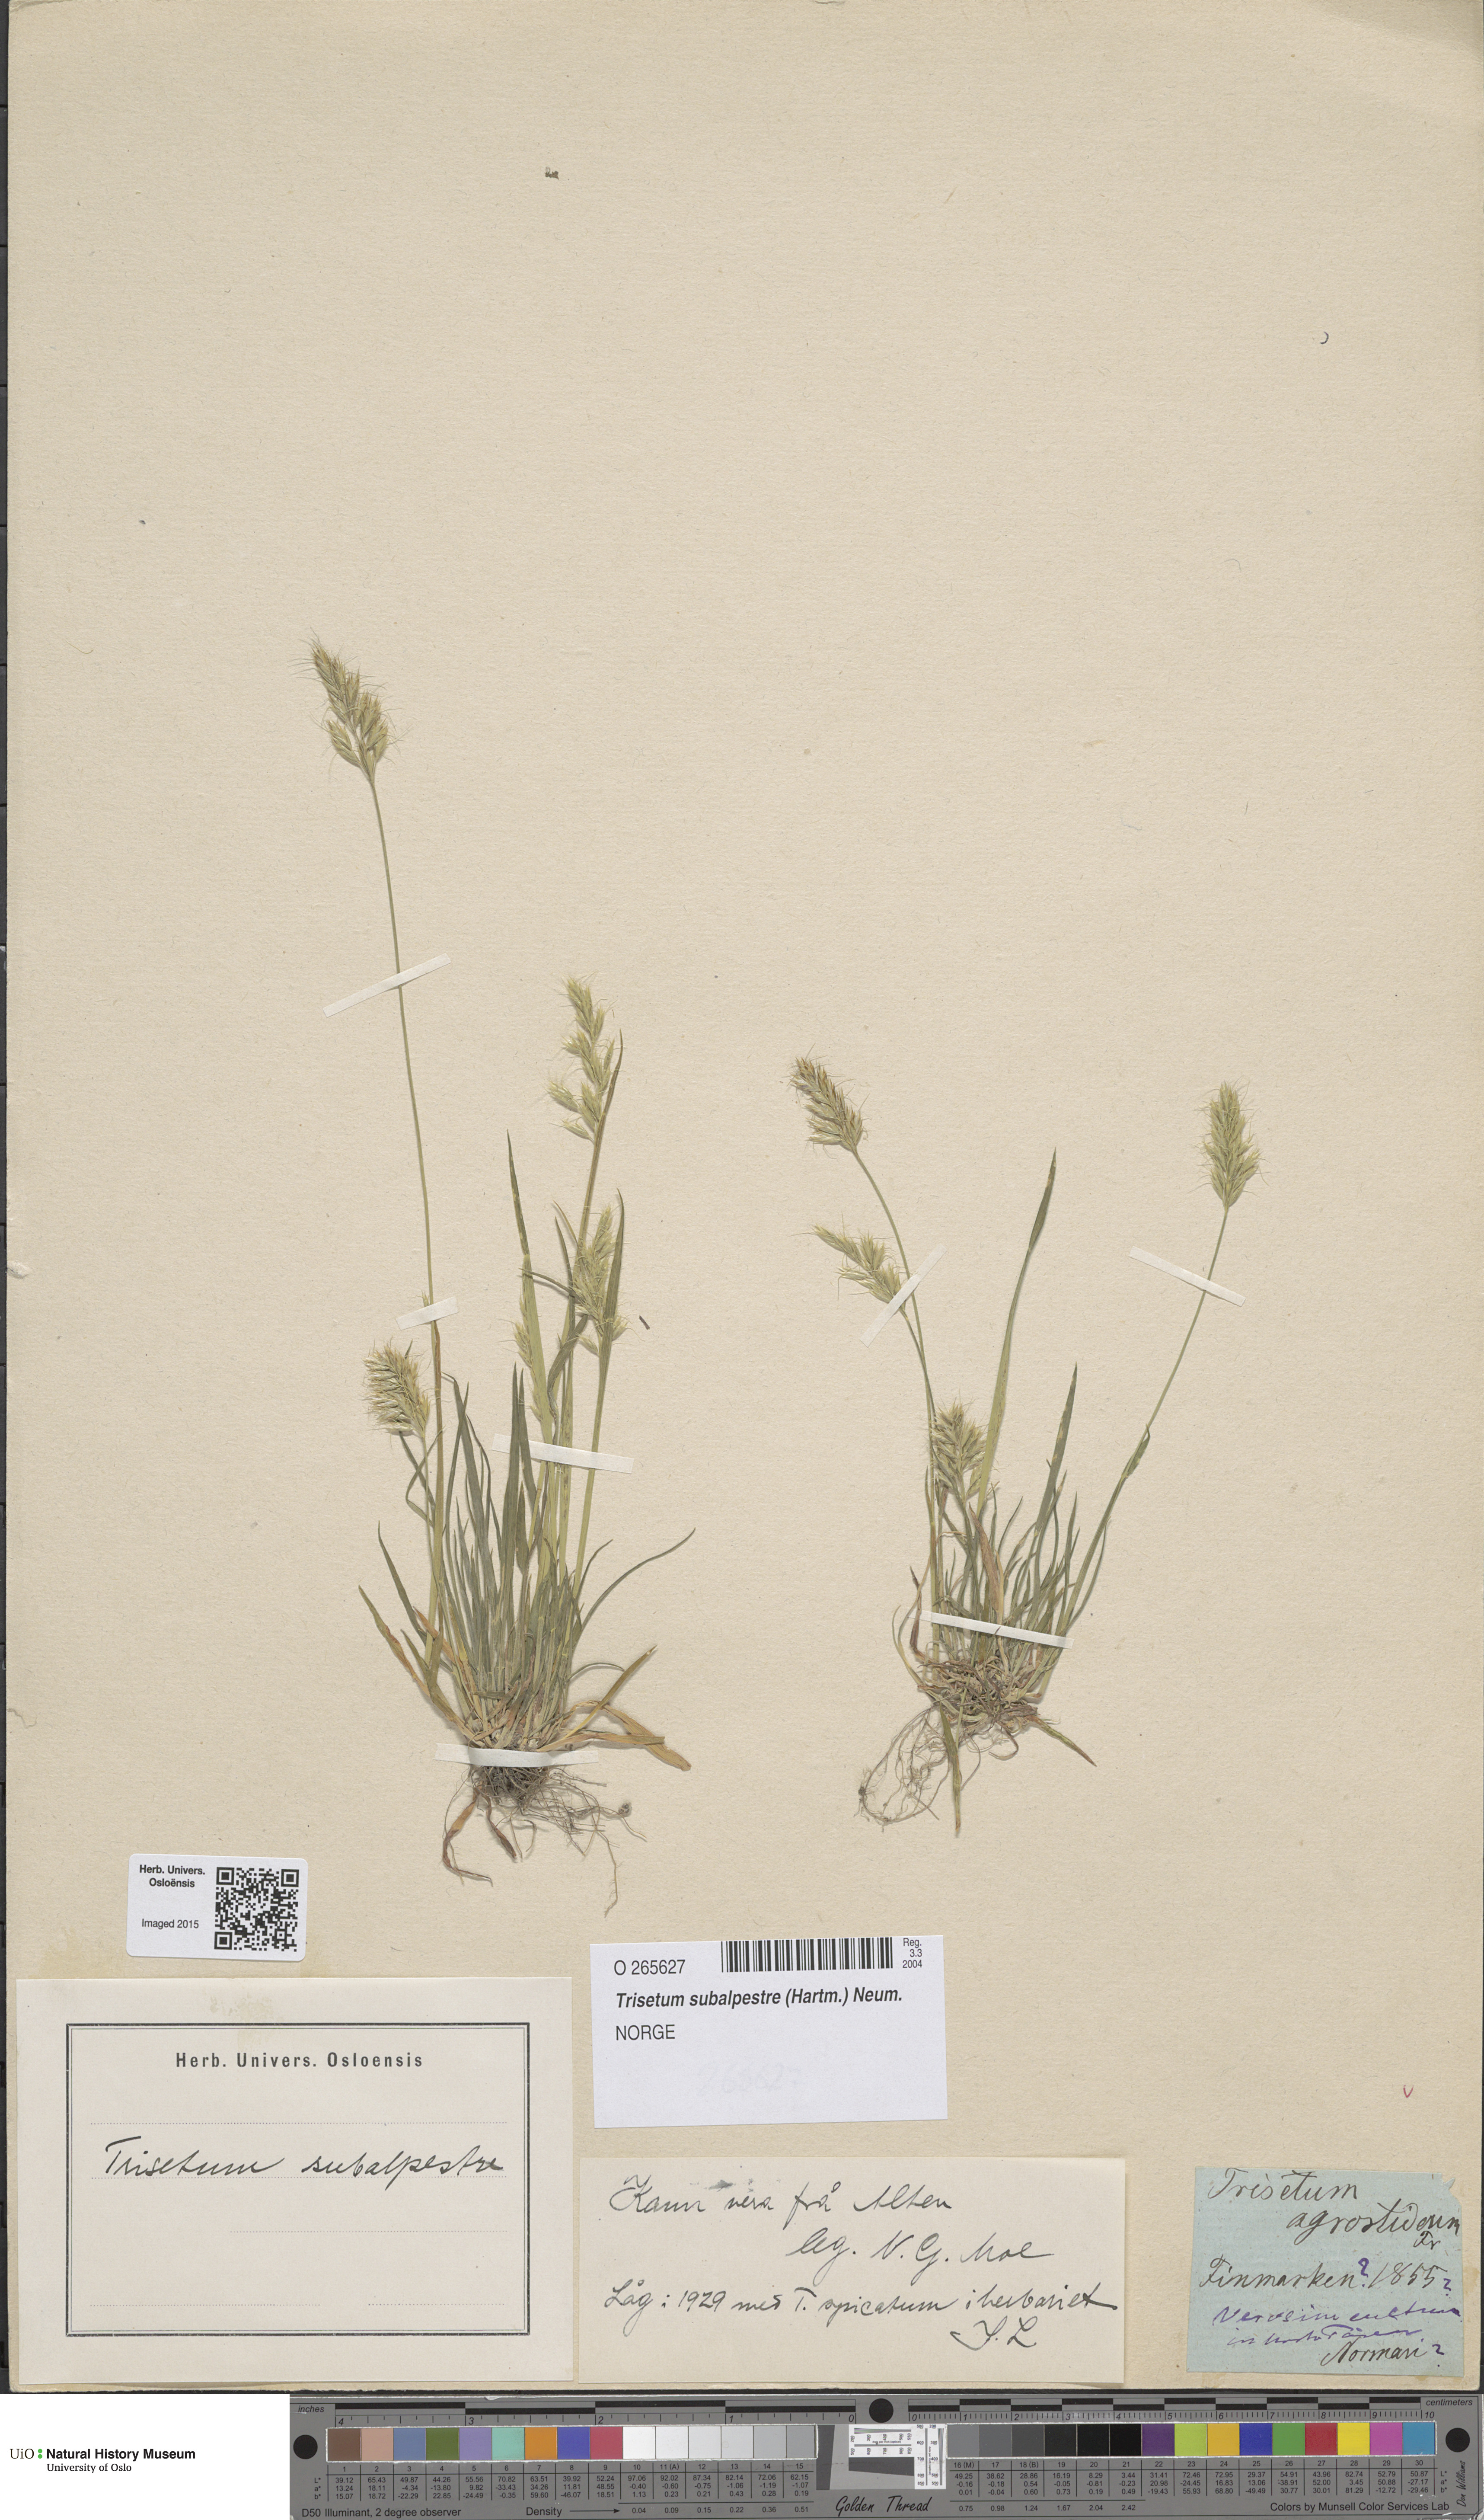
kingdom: Plantae
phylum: Tracheophyta
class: Liliopsida
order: Poales
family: Poaceae
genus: Koeleria
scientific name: Koeleria subalpestris
